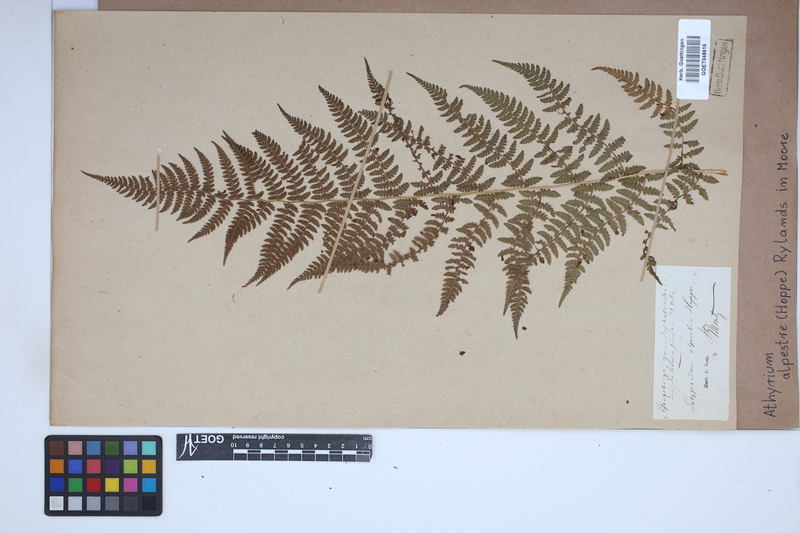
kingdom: Plantae
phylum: Tracheophyta
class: Polypodiopsida
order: Polypodiales
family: Athyriaceae
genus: Pseudathyrium
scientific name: Pseudathyrium alpestre
